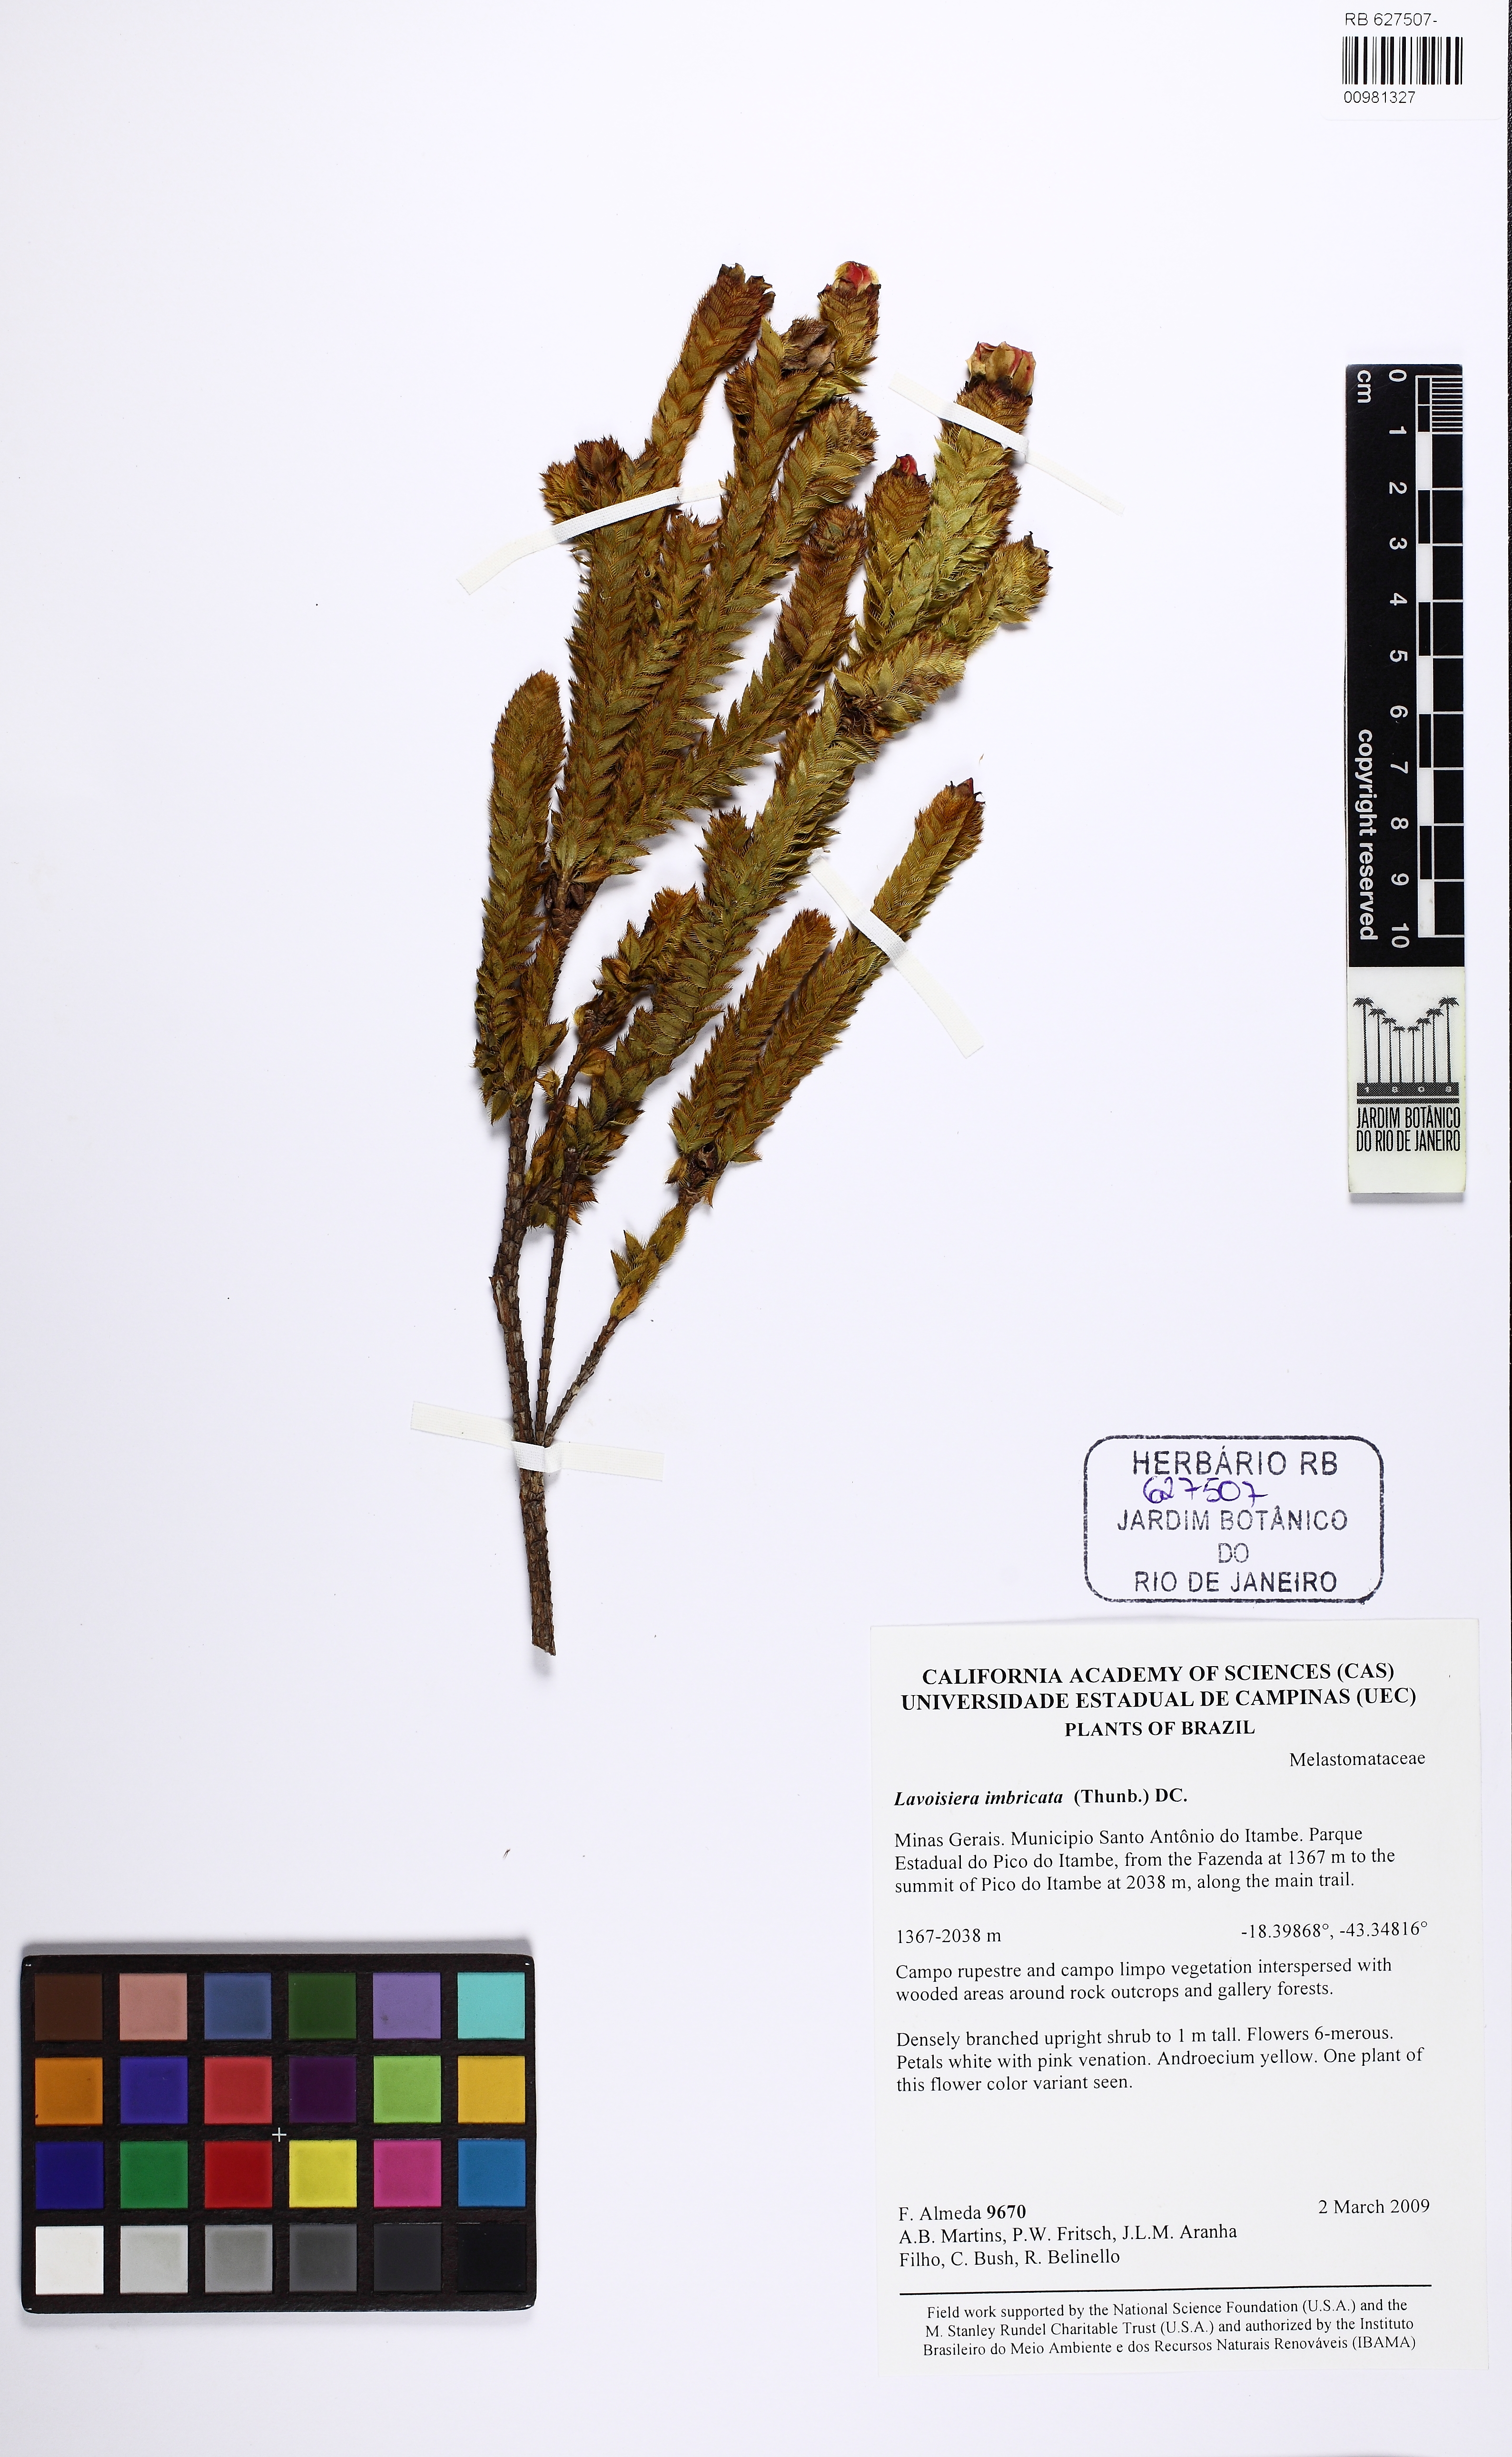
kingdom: Plantae
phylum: Tracheophyta
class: Magnoliopsida
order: Myrtales
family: Melastomataceae
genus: Microlicia
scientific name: Microlicia cataphracta
